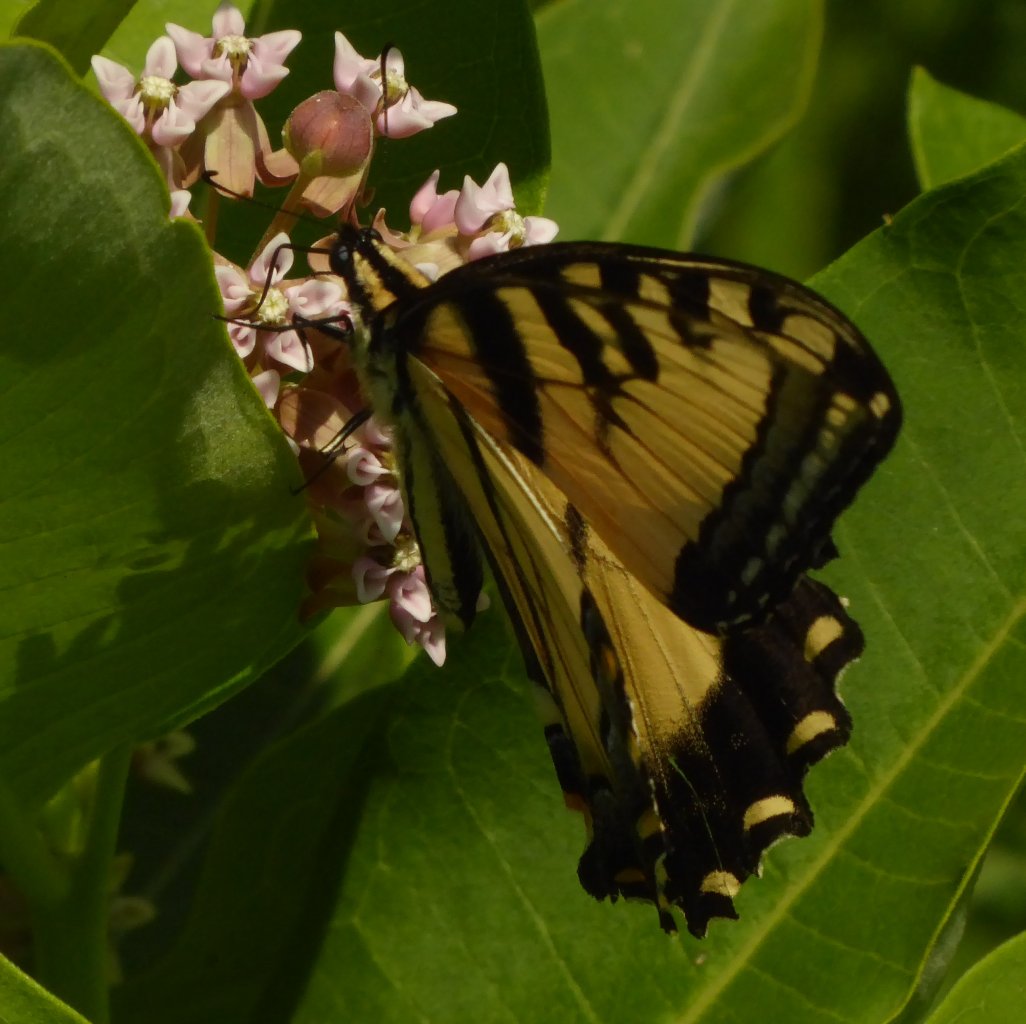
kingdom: Animalia
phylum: Arthropoda
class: Insecta
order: Lepidoptera
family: Papilionidae
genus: Pterourus
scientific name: Pterourus glaucus
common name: Eastern Tiger Swallowtail
